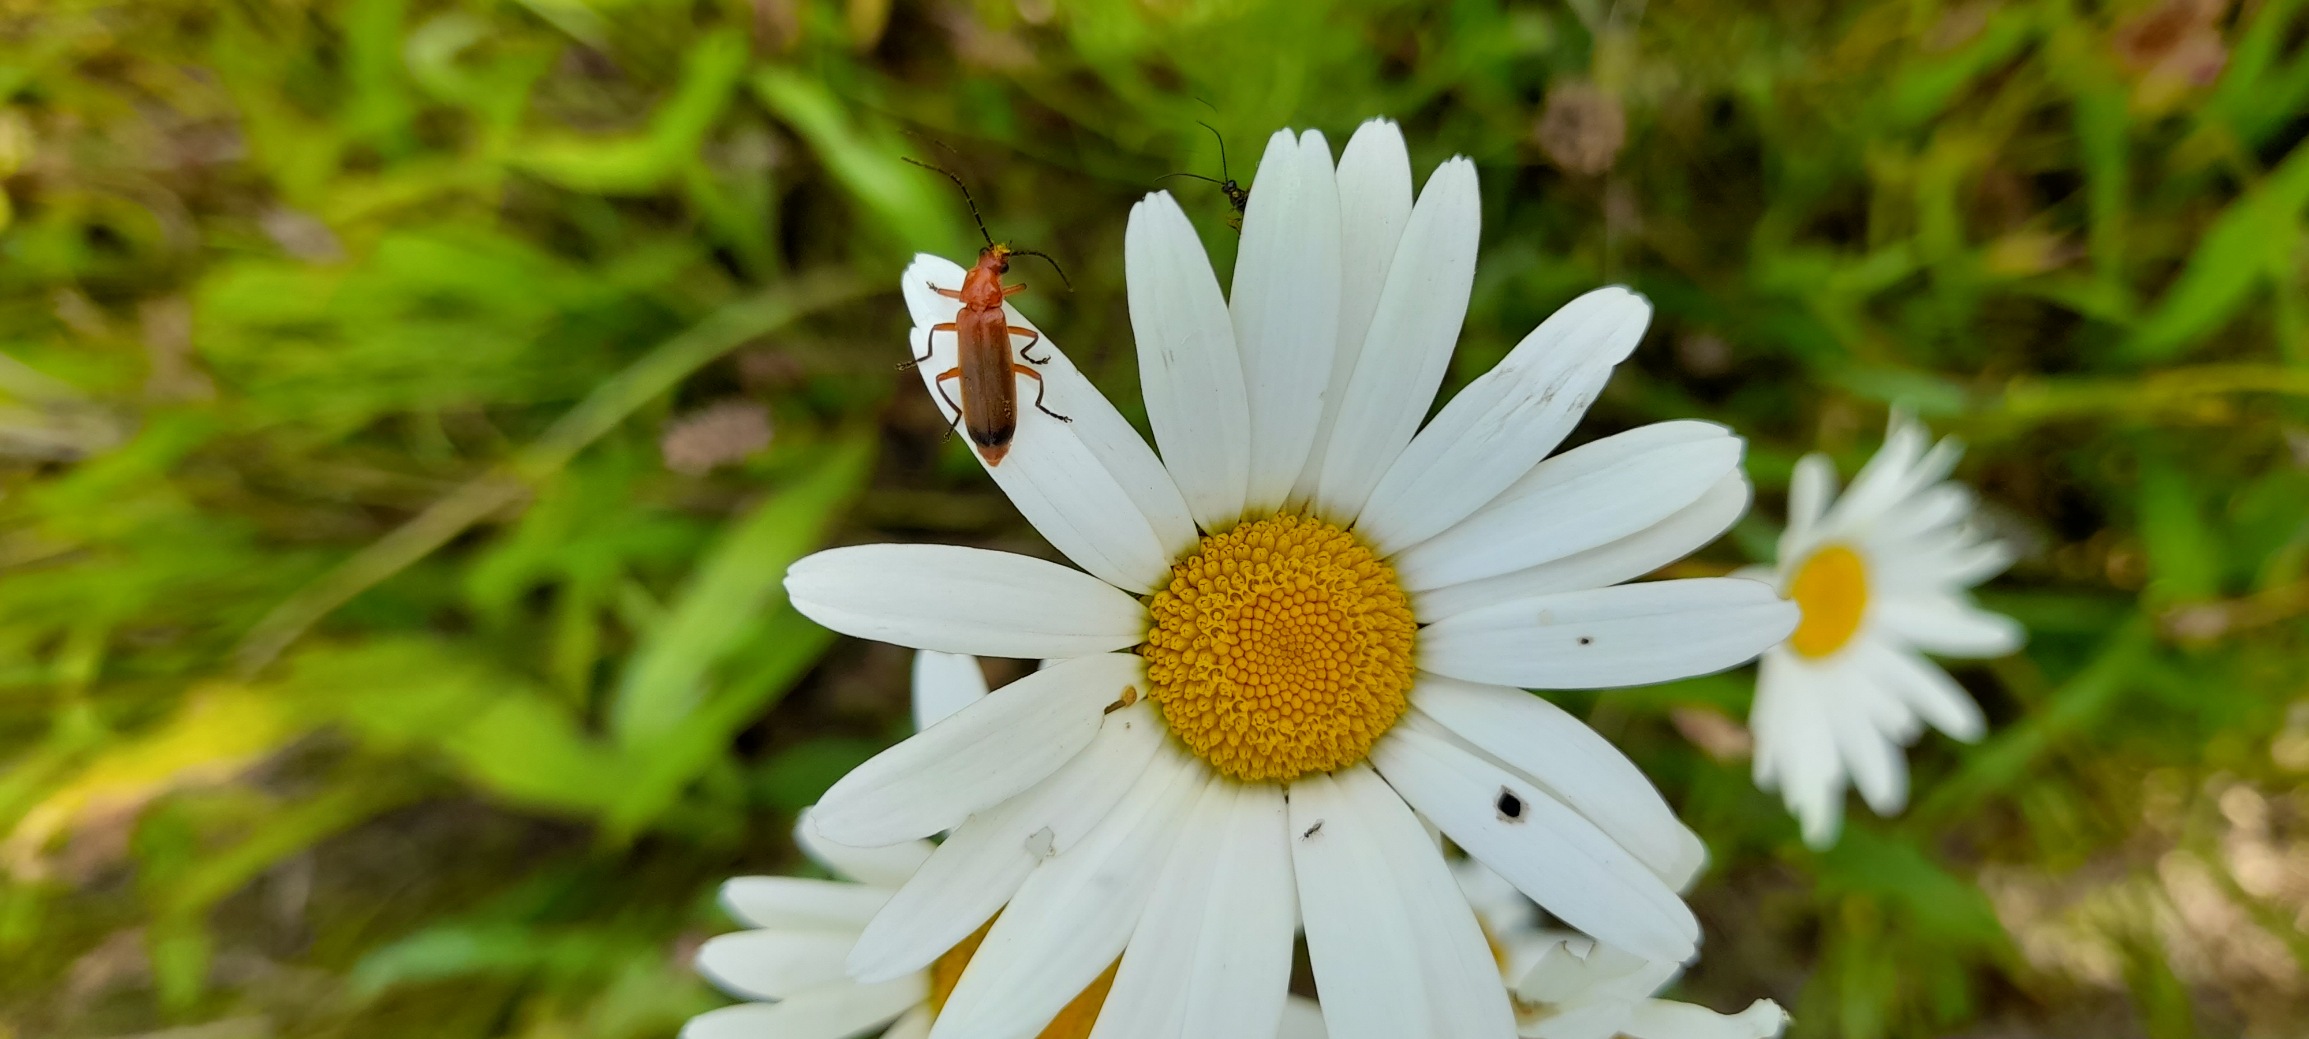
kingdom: Animalia
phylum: Arthropoda
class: Insecta
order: Coleoptera
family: Cantharidae
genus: Rhagonycha
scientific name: Rhagonycha fulva
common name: Præstebille
